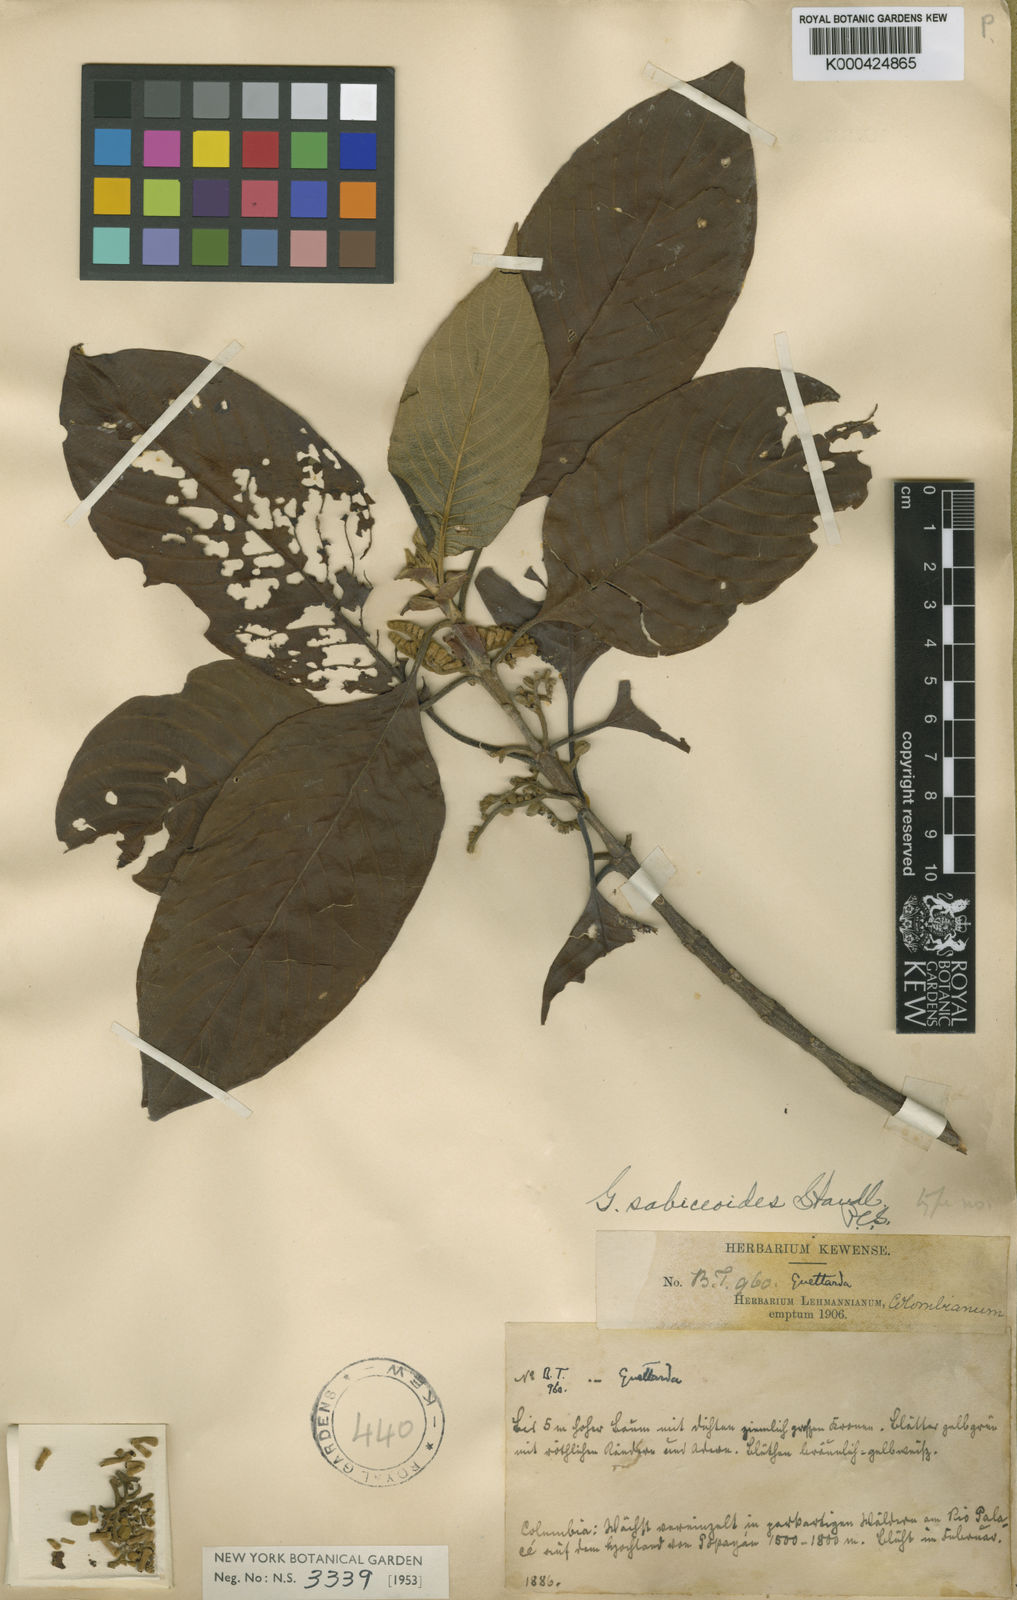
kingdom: Plantae
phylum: Tracheophyta
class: Magnoliopsida
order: Gentianales
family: Rubiaceae
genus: Tournefortiopsis
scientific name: Tournefortiopsis dependens
